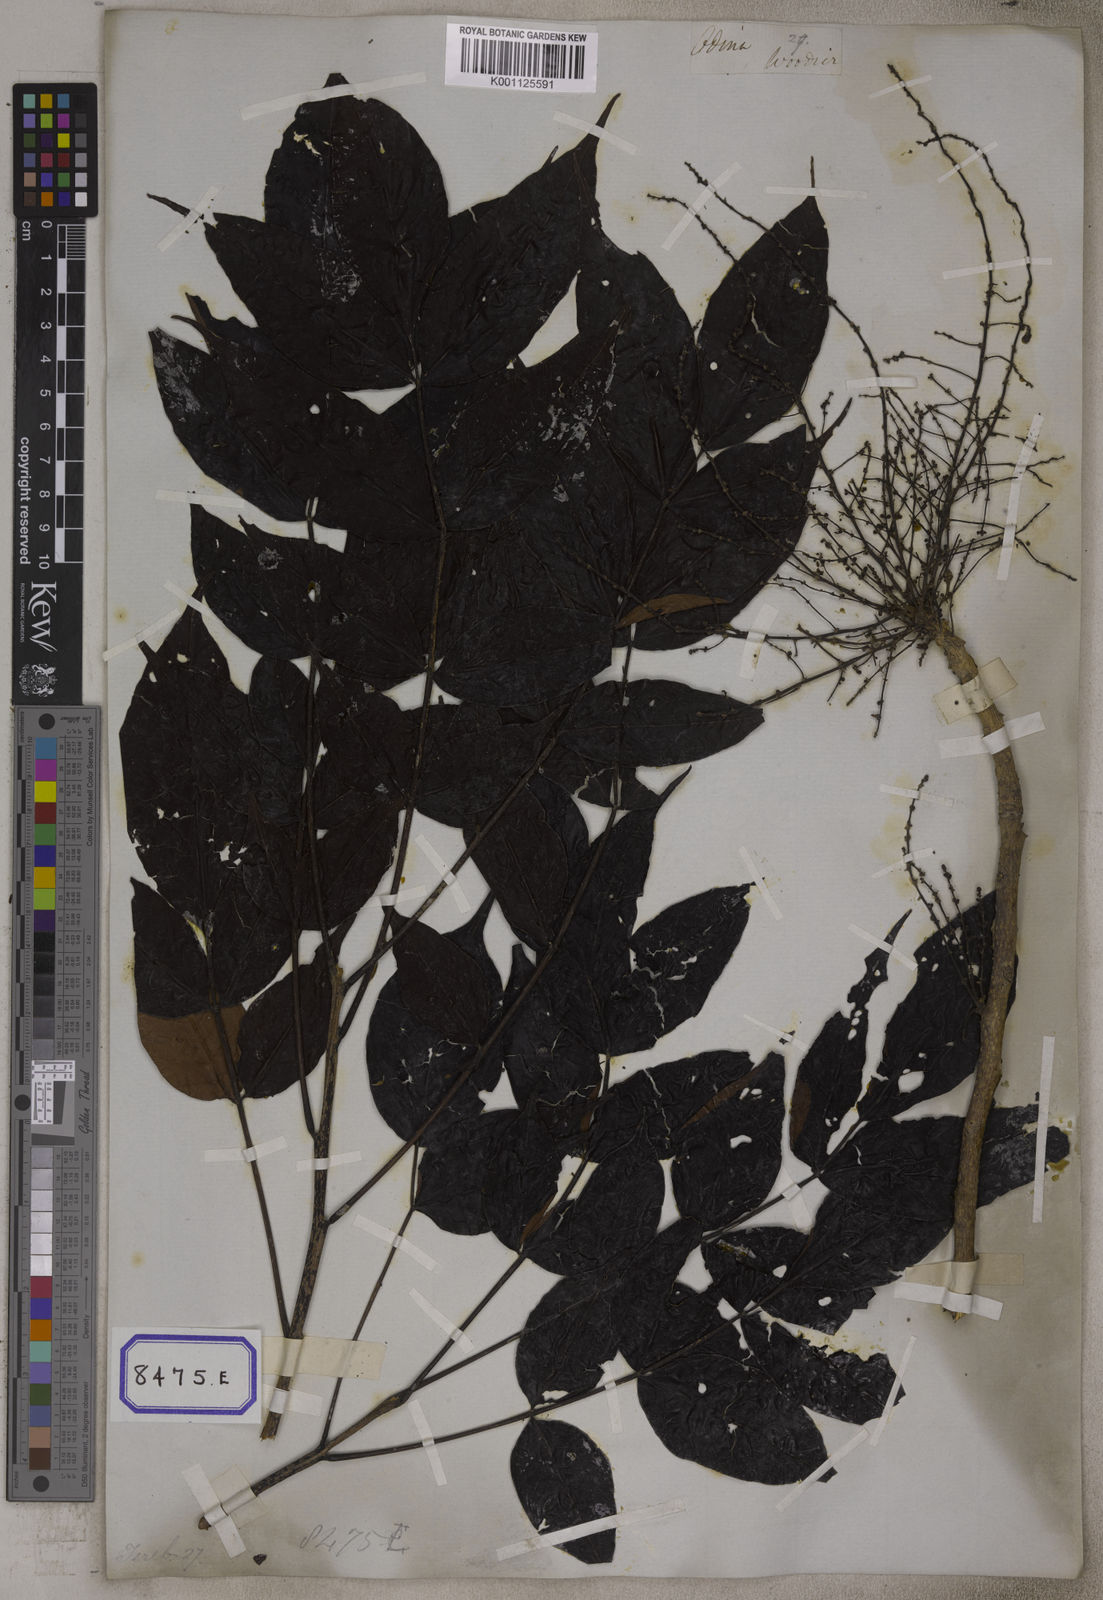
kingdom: Plantae
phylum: Tracheophyta
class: Magnoliopsida
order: Sapindales
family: Anacardiaceae
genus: Lannea
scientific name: Lannea coromandelica
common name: Indian ash tree
